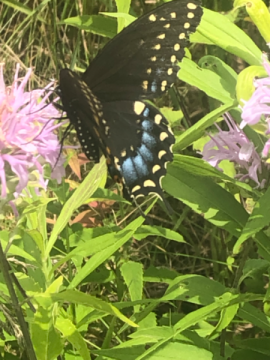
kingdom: Animalia
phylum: Arthropoda
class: Insecta
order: Lepidoptera
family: Papilionidae
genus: Papilio
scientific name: Papilio polyxenes
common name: Black Swallowtail
